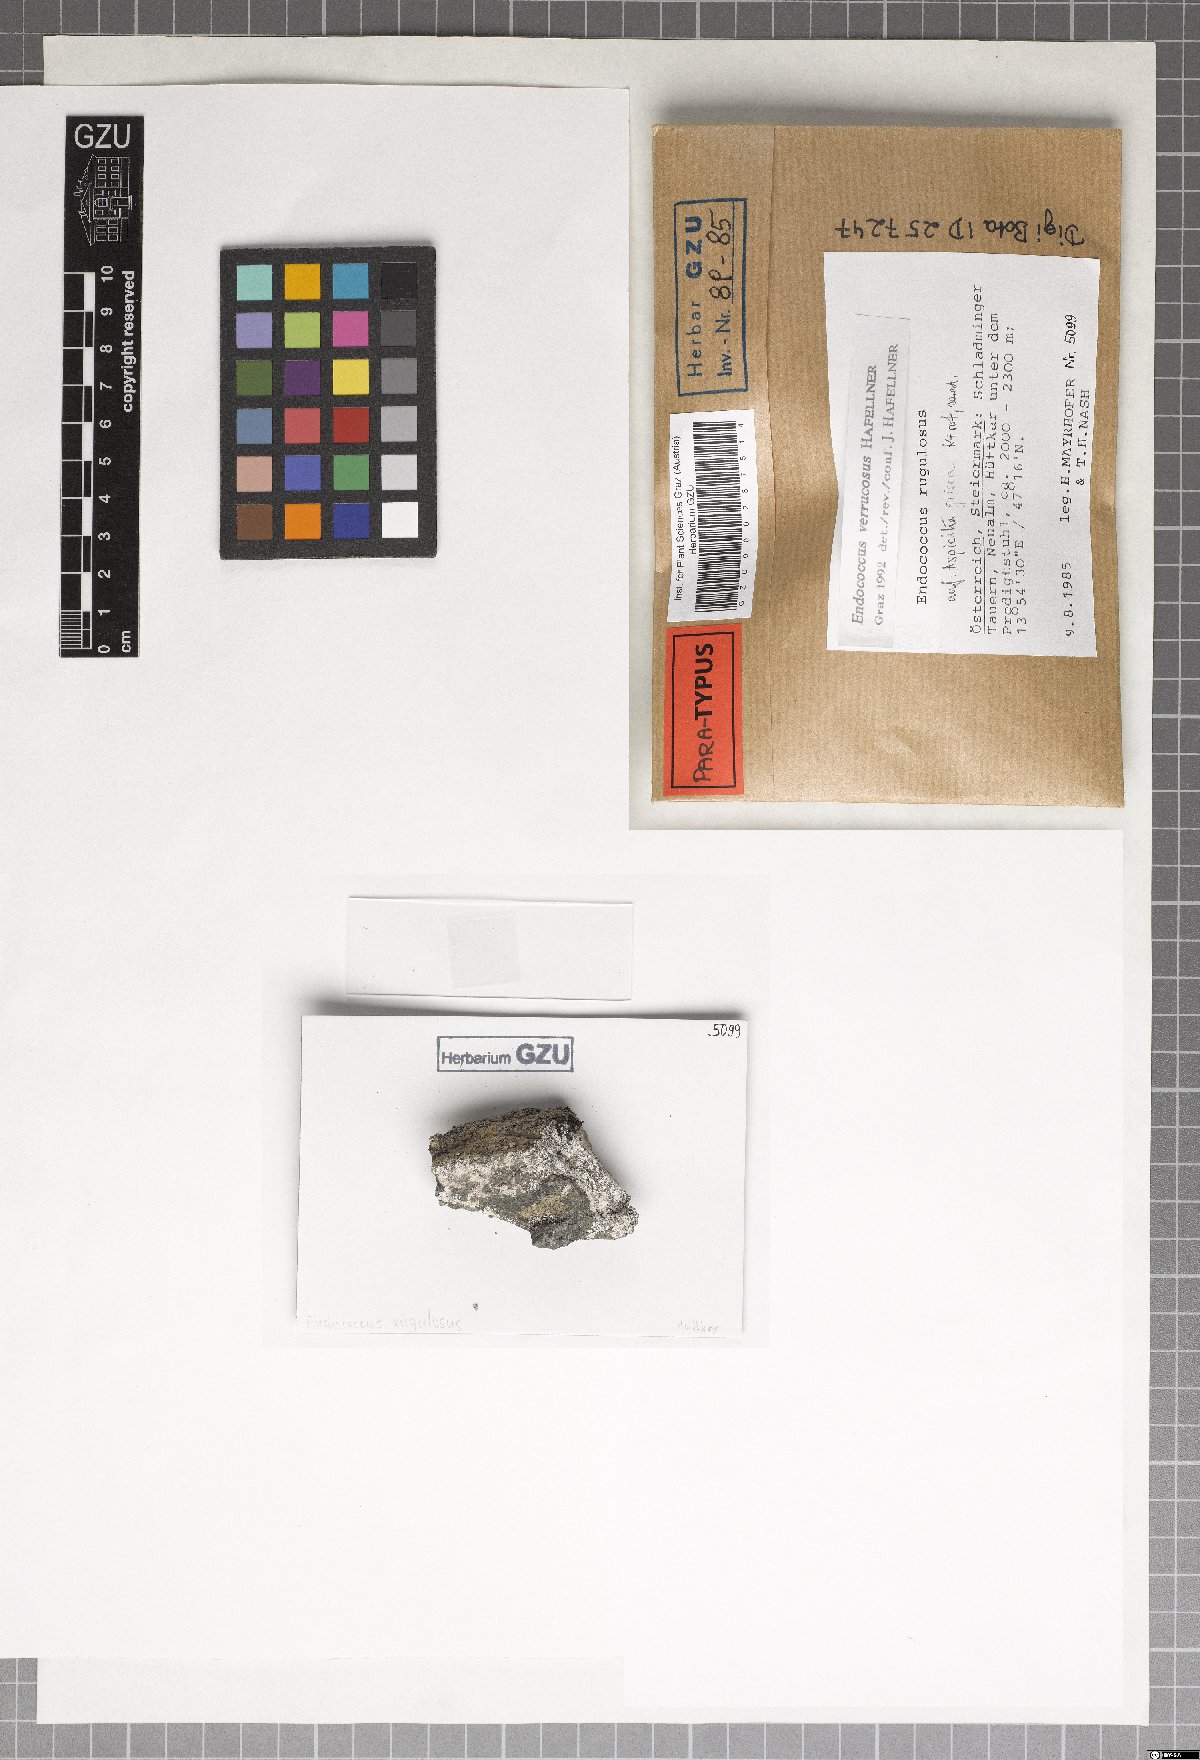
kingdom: Fungi
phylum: Ascomycota
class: Dothideomycetes
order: Dothideales
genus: Endococcus
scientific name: Endococcus verrucosus
